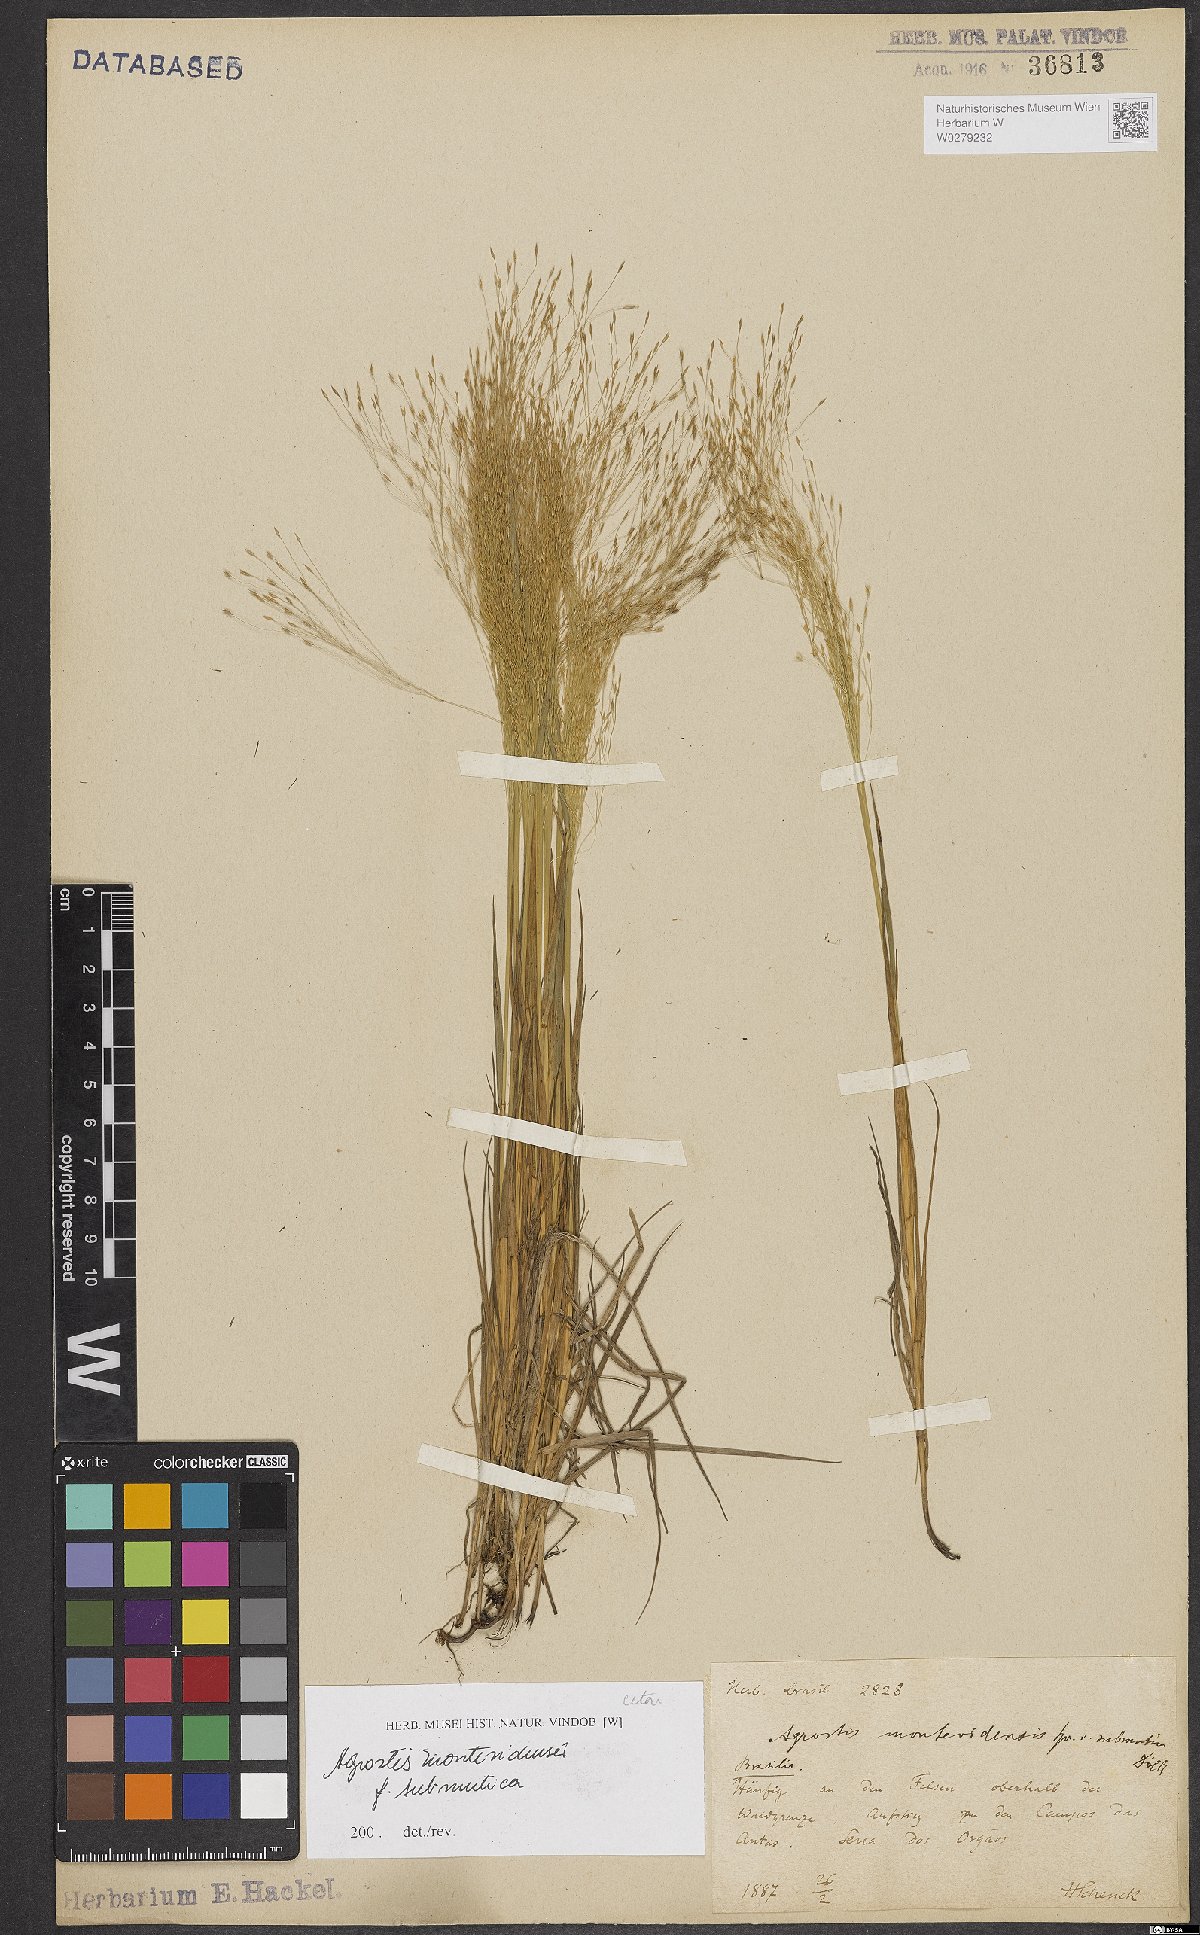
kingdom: Plantae
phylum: Tracheophyta
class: Liliopsida
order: Poales
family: Poaceae
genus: Agrostis
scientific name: Agrostis montevidensis
